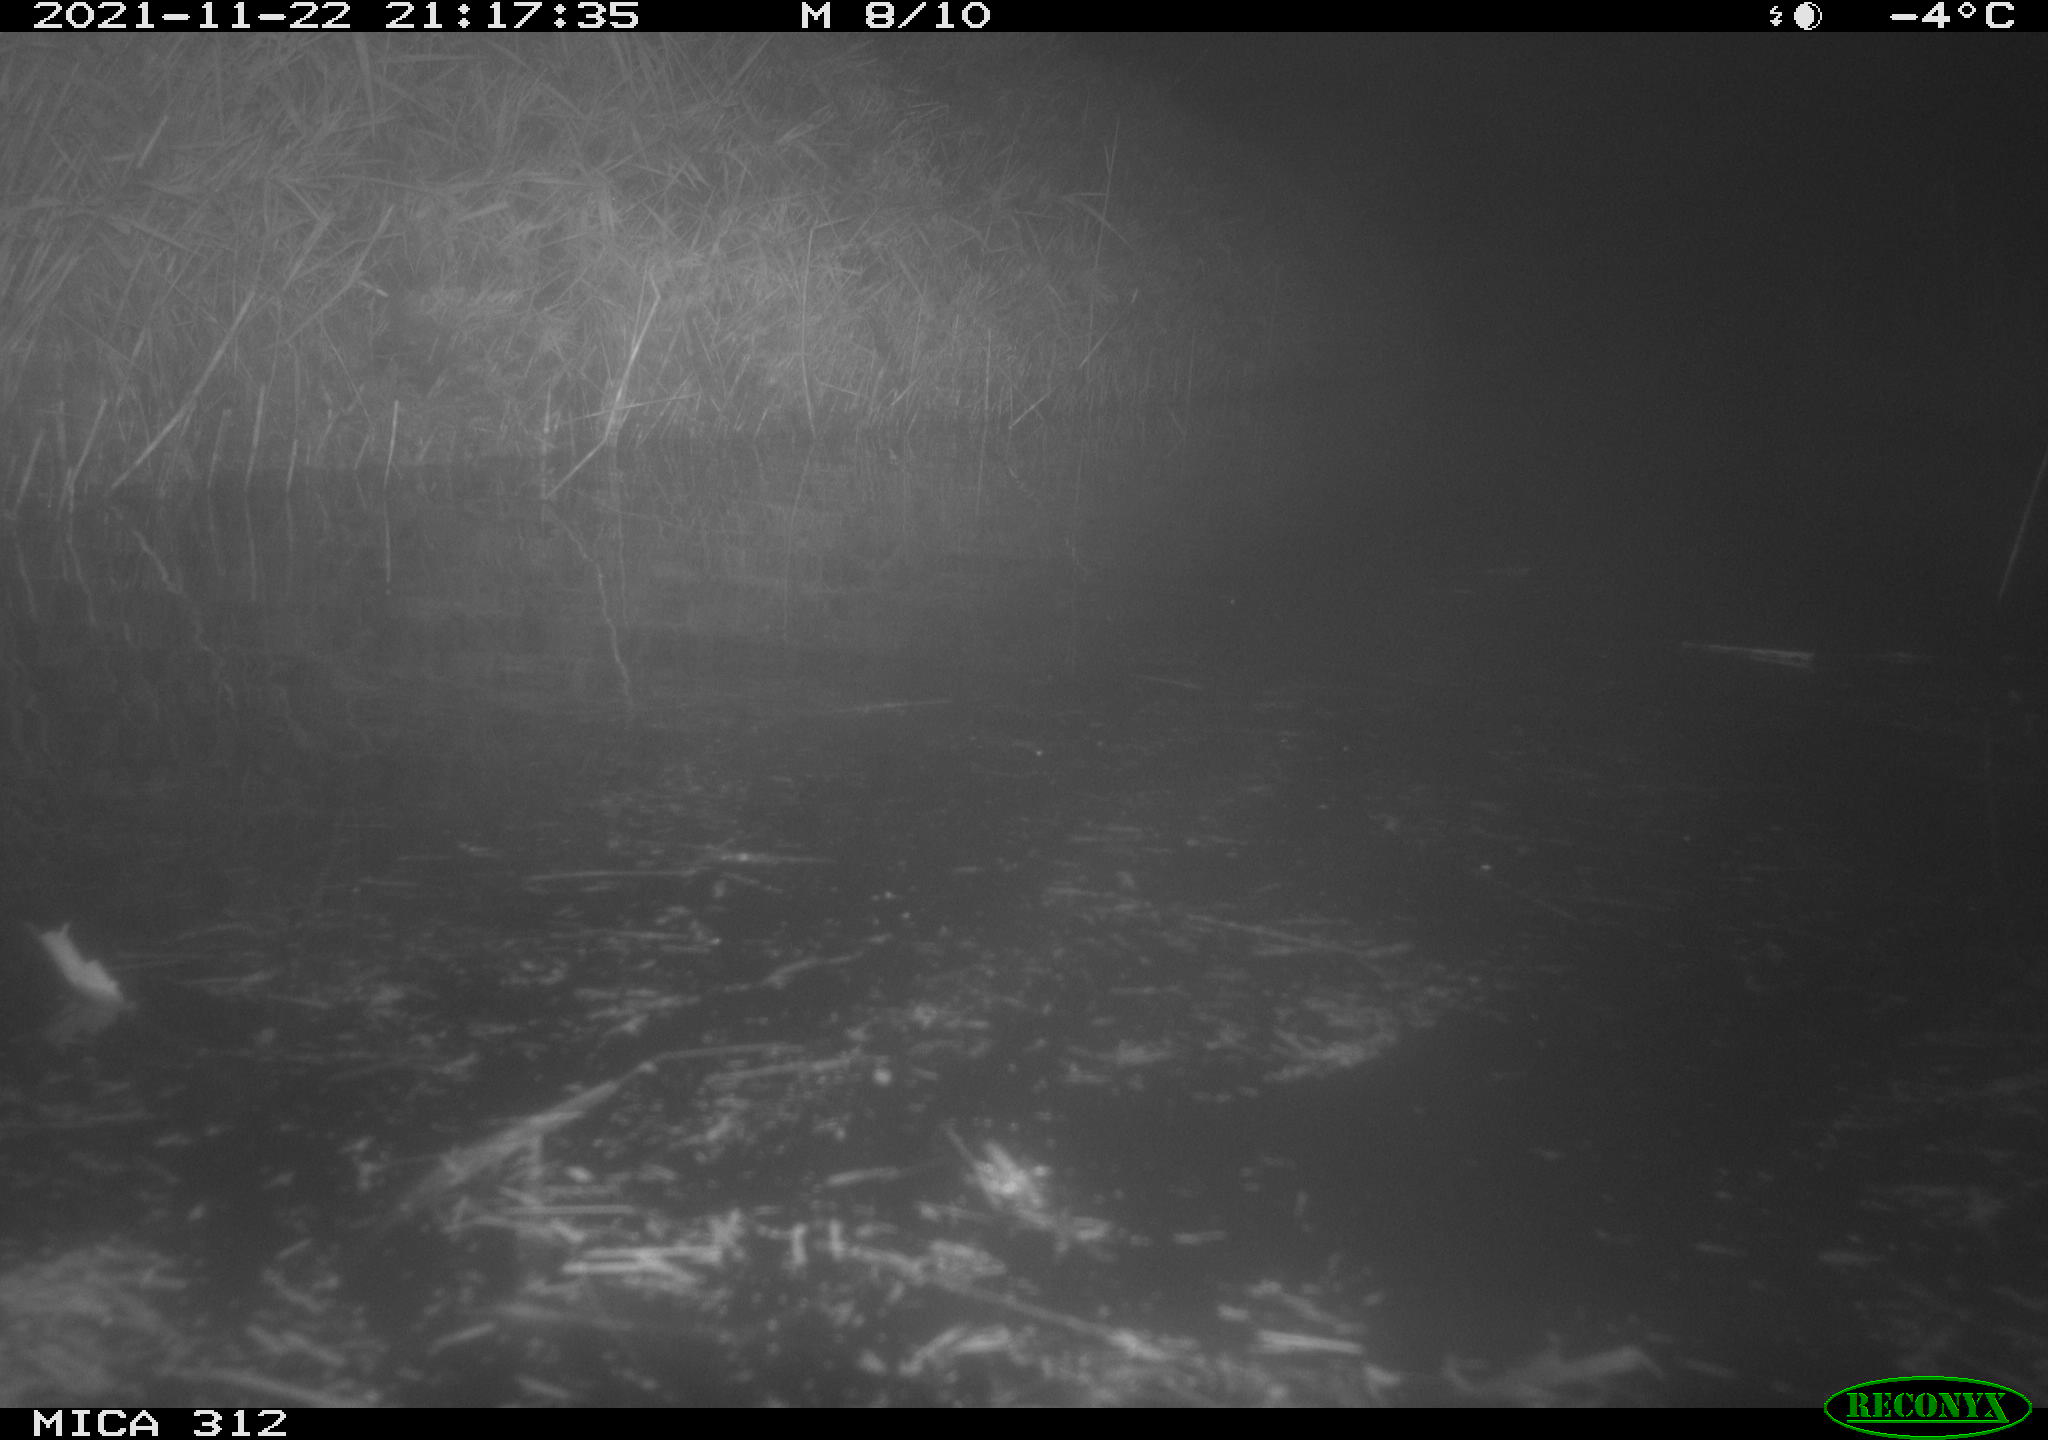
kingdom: Animalia
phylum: Chordata
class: Mammalia
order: Rodentia
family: Muridae
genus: Rattus
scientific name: Rattus norvegicus
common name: Brown rat
